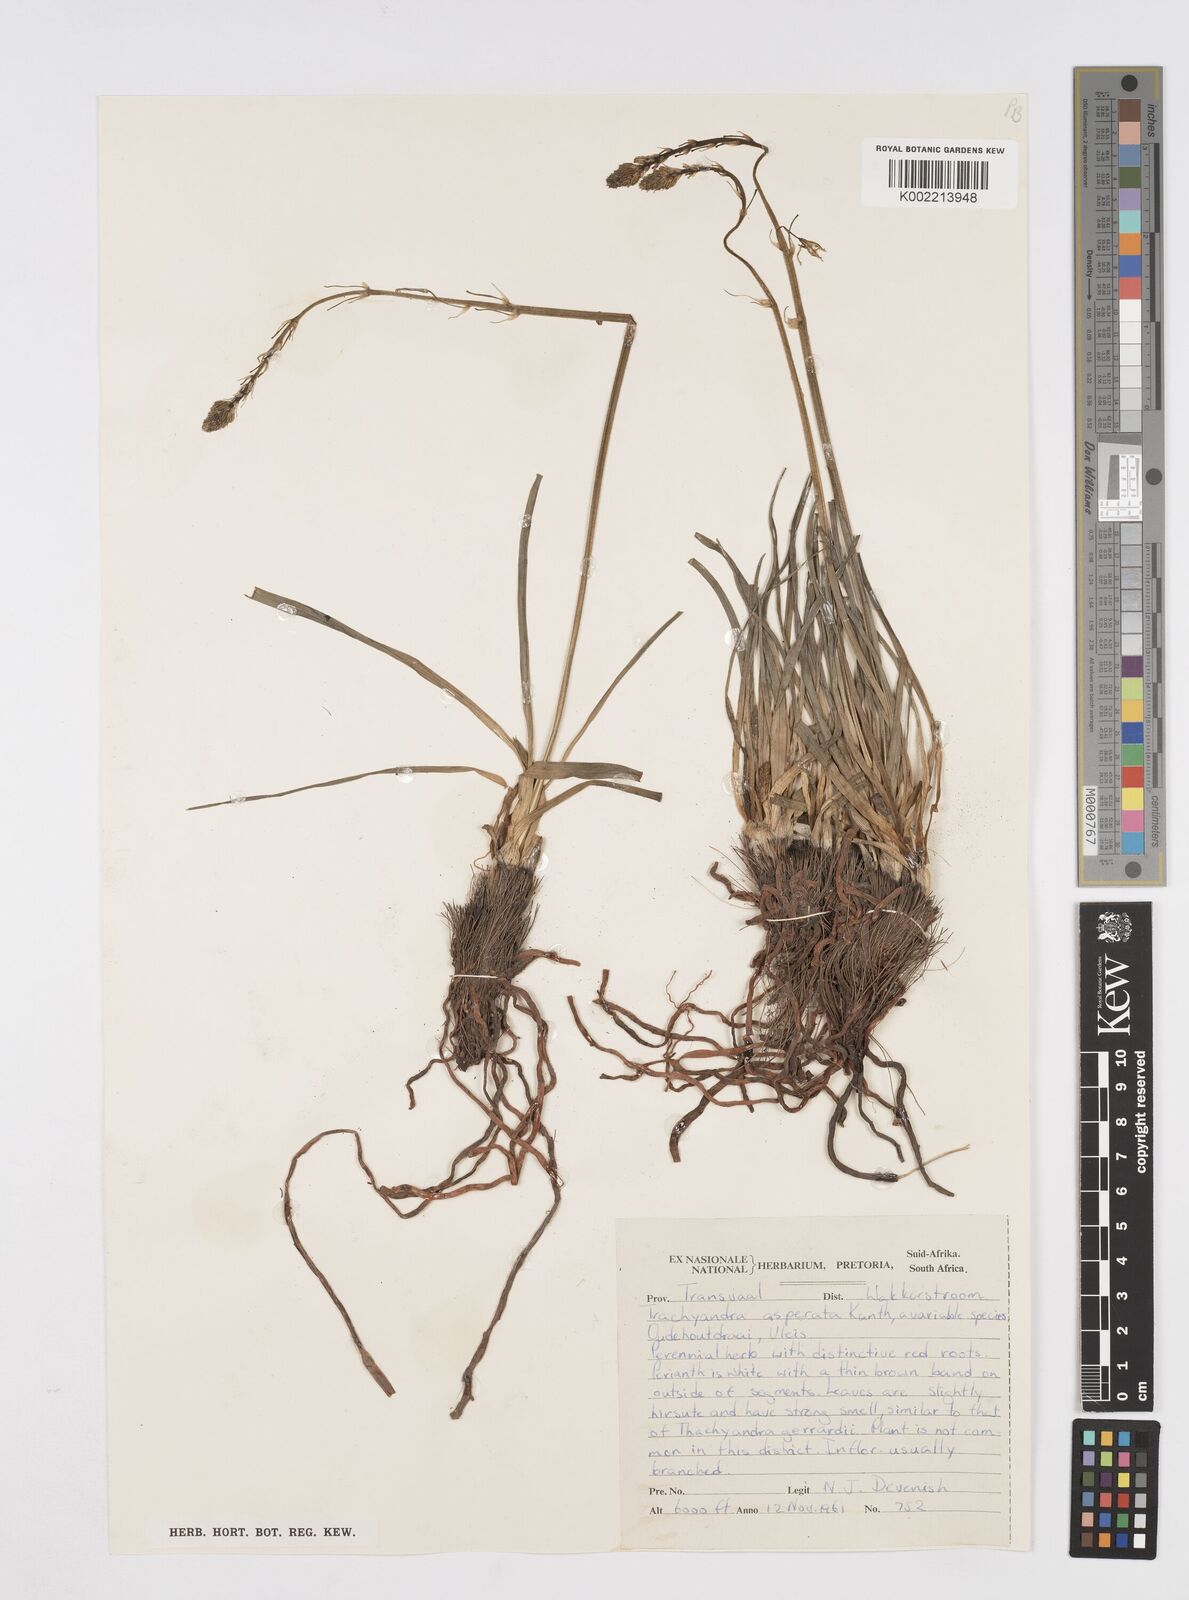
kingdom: Plantae
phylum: Tracheophyta
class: Liliopsida
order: Asparagales
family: Asphodelaceae
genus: Trachyandra
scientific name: Trachyandra asperata
